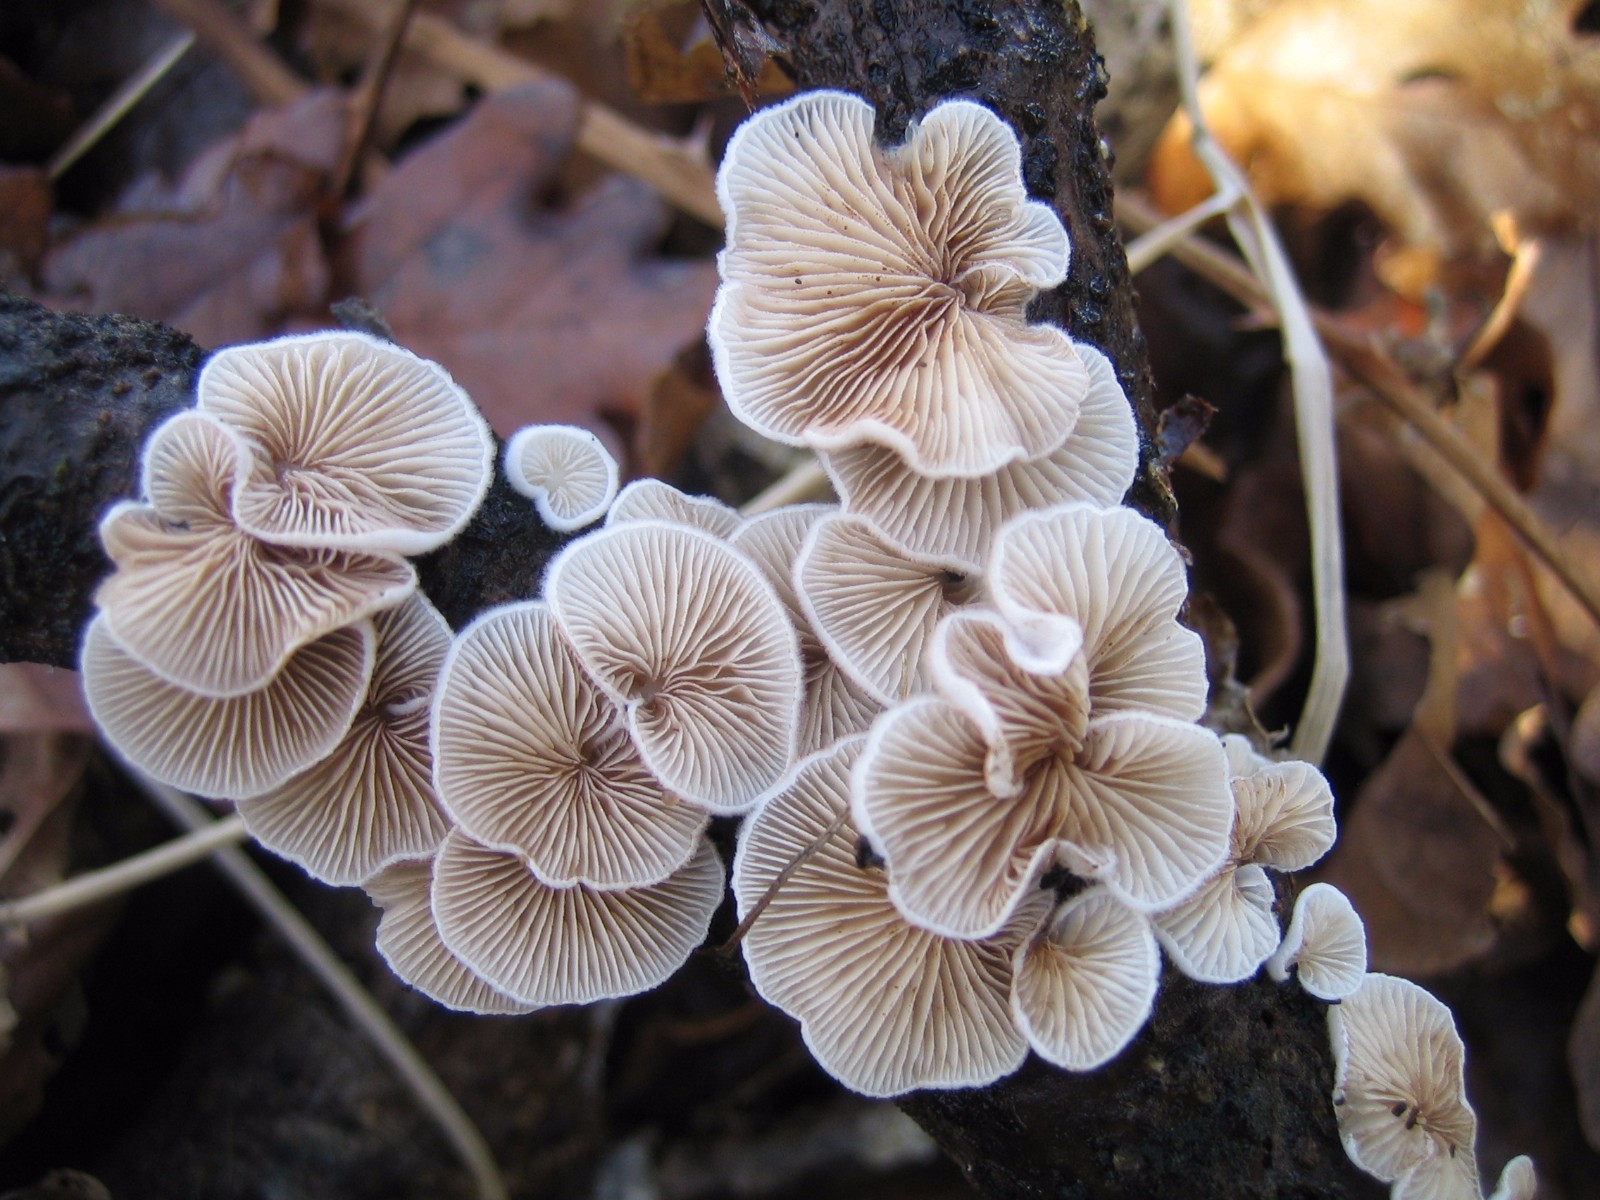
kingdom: Fungi
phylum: Basidiomycota
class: Agaricomycetes
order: Agaricales
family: Crepidotaceae
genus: Crepidotus
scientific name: Crepidotus
